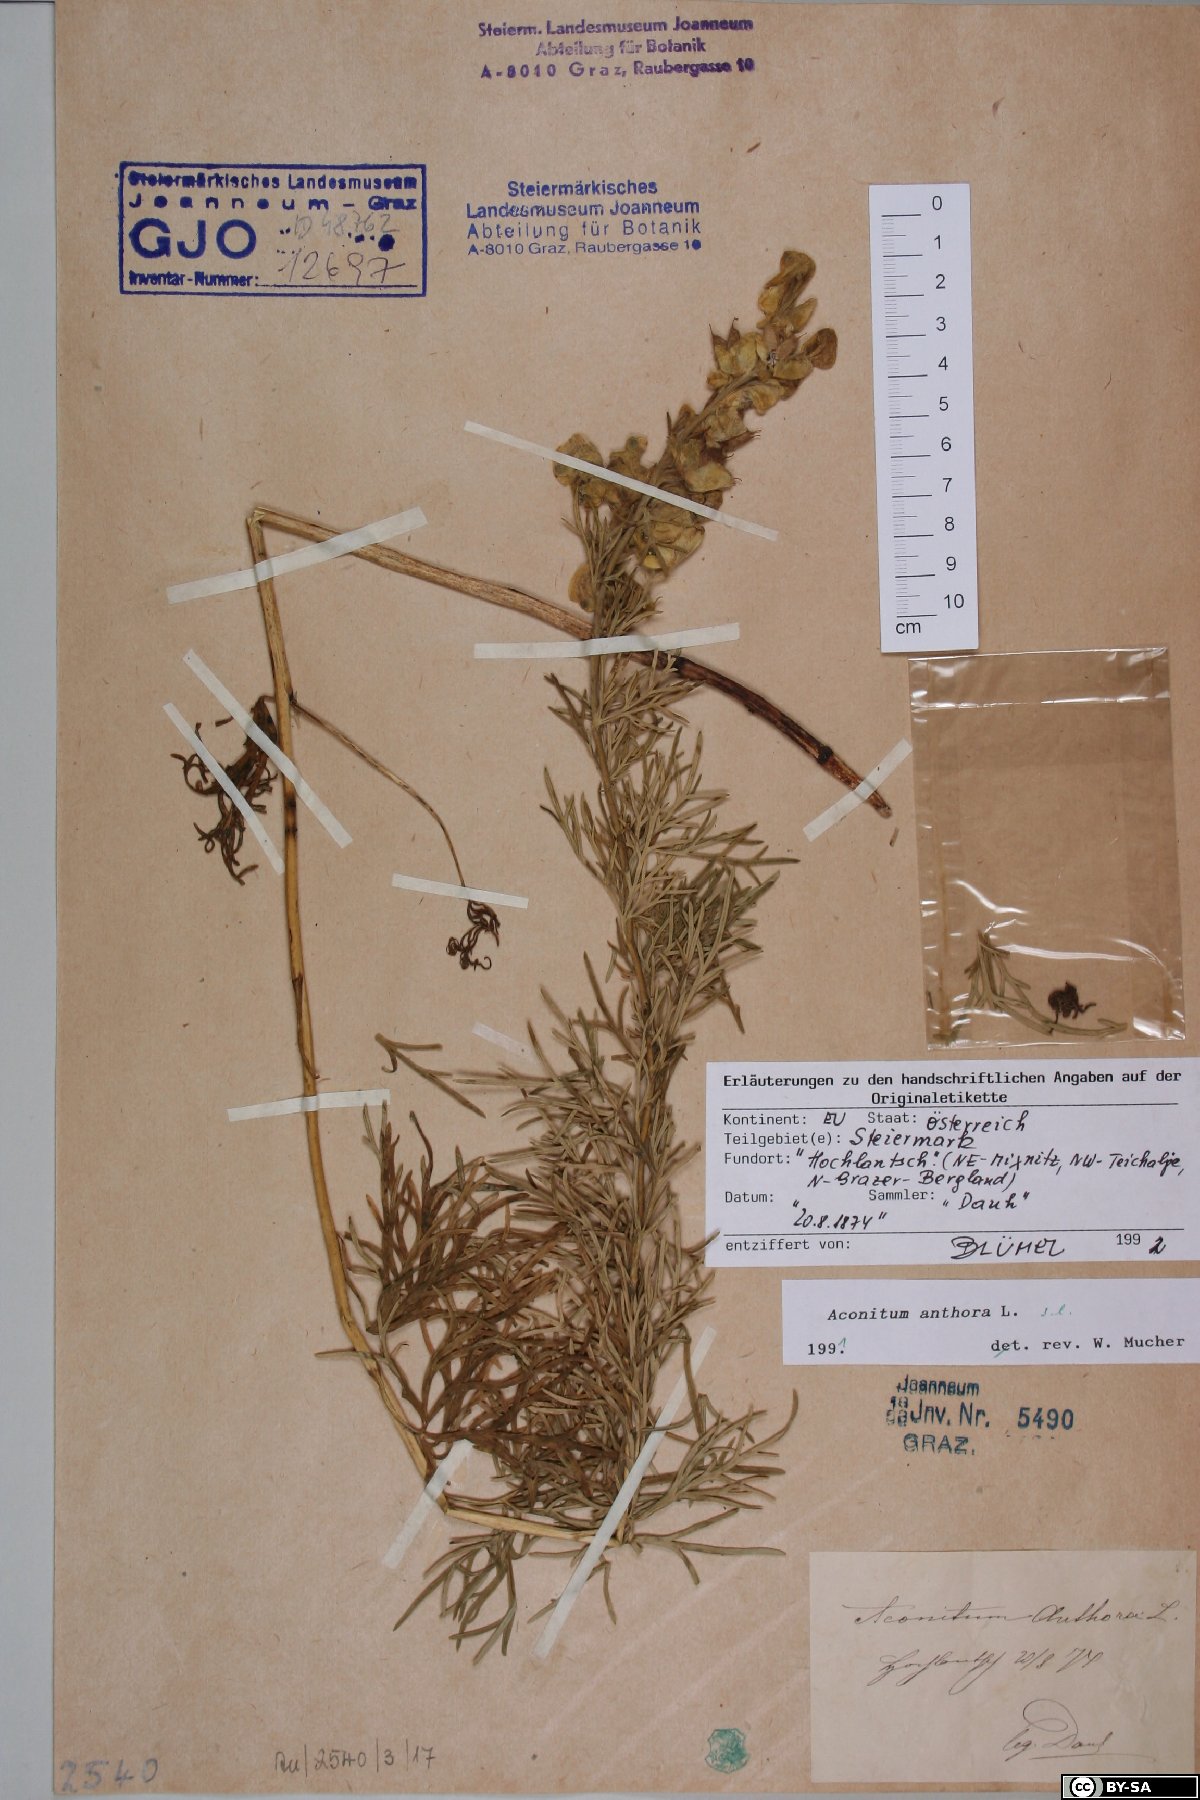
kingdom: Plantae
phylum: Tracheophyta
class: Magnoliopsida
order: Ranunculales
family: Ranunculaceae
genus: Aconitum
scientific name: Aconitum anthora
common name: Yellow monkshood
